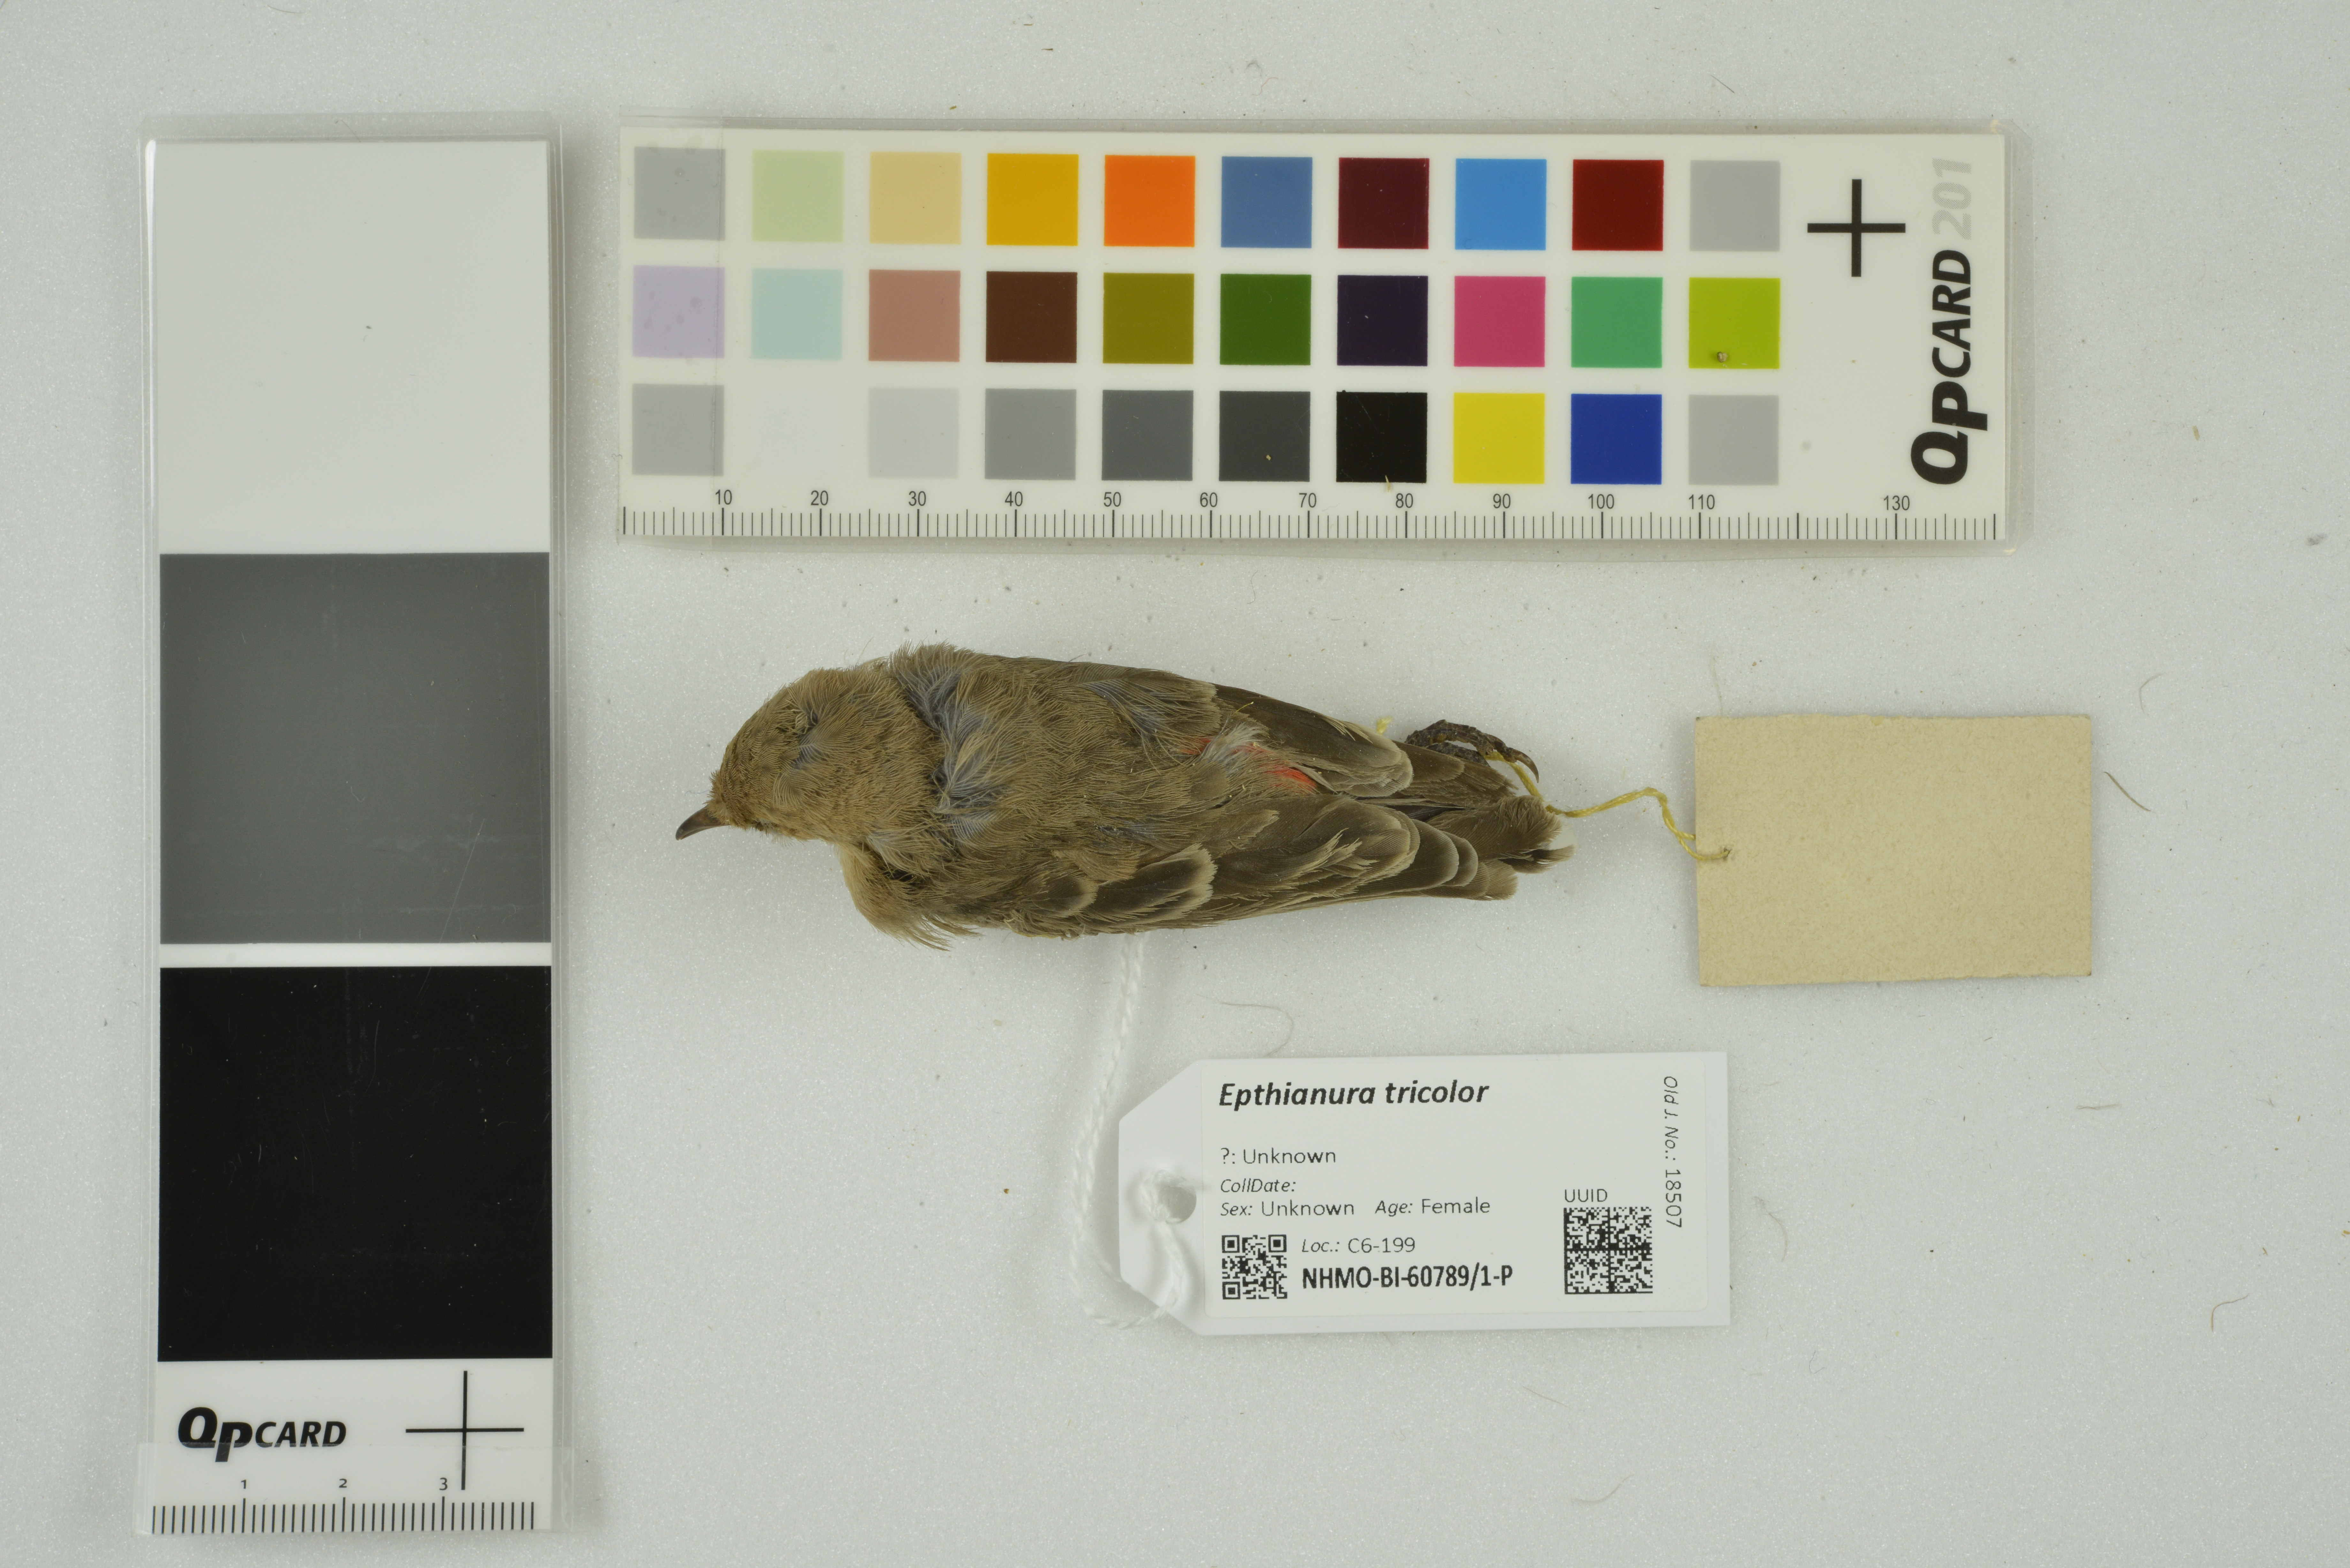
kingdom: Animalia
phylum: Chordata
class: Aves
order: Passeriformes
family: Meliphagidae
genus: Epthianura
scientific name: Epthianura tricolor
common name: Crimson chat
